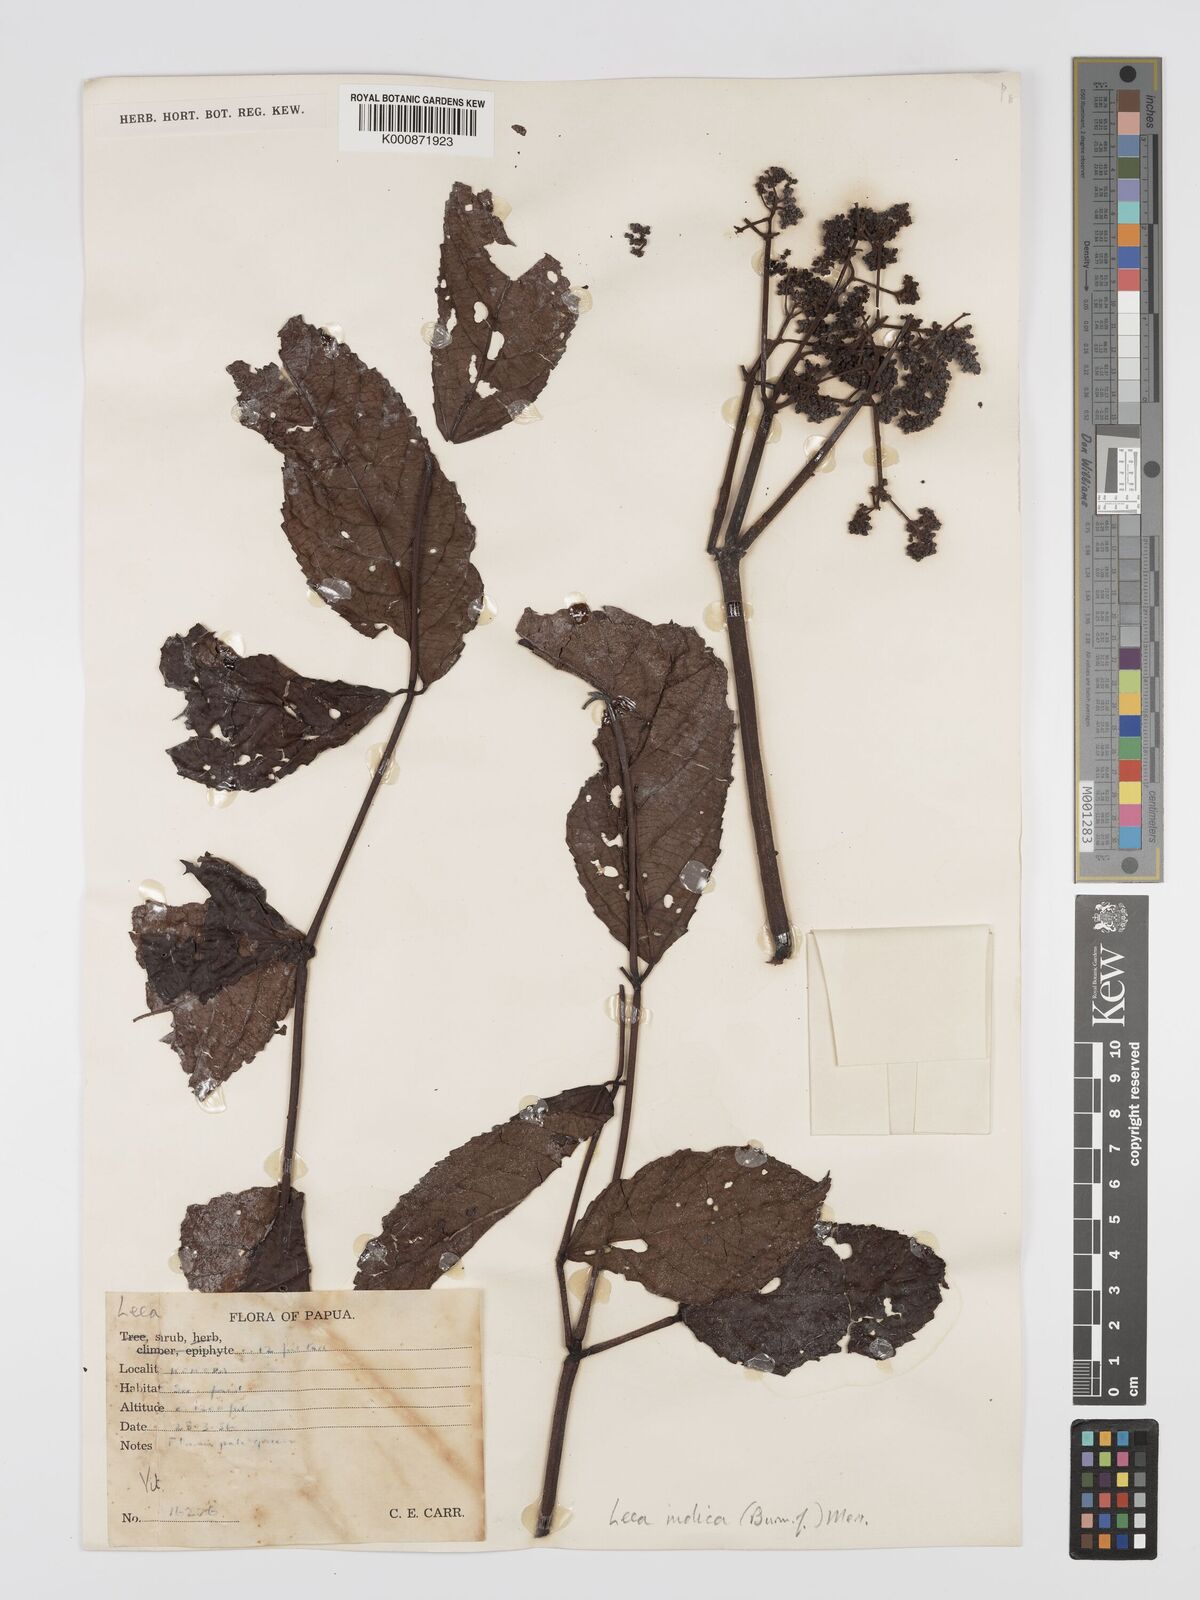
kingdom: Plantae
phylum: Tracheophyta
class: Magnoliopsida
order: Vitales
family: Vitaceae
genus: Leea
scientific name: Leea indica
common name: Bandicoot-berry
